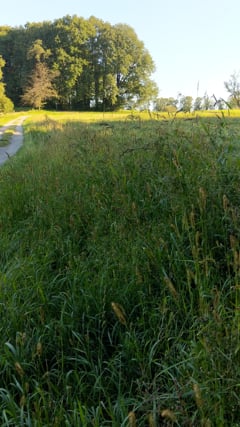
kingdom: Animalia
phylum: Arthropoda
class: Insecta
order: Orthoptera
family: Gryllidae
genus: Gryllus
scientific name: Gryllus
